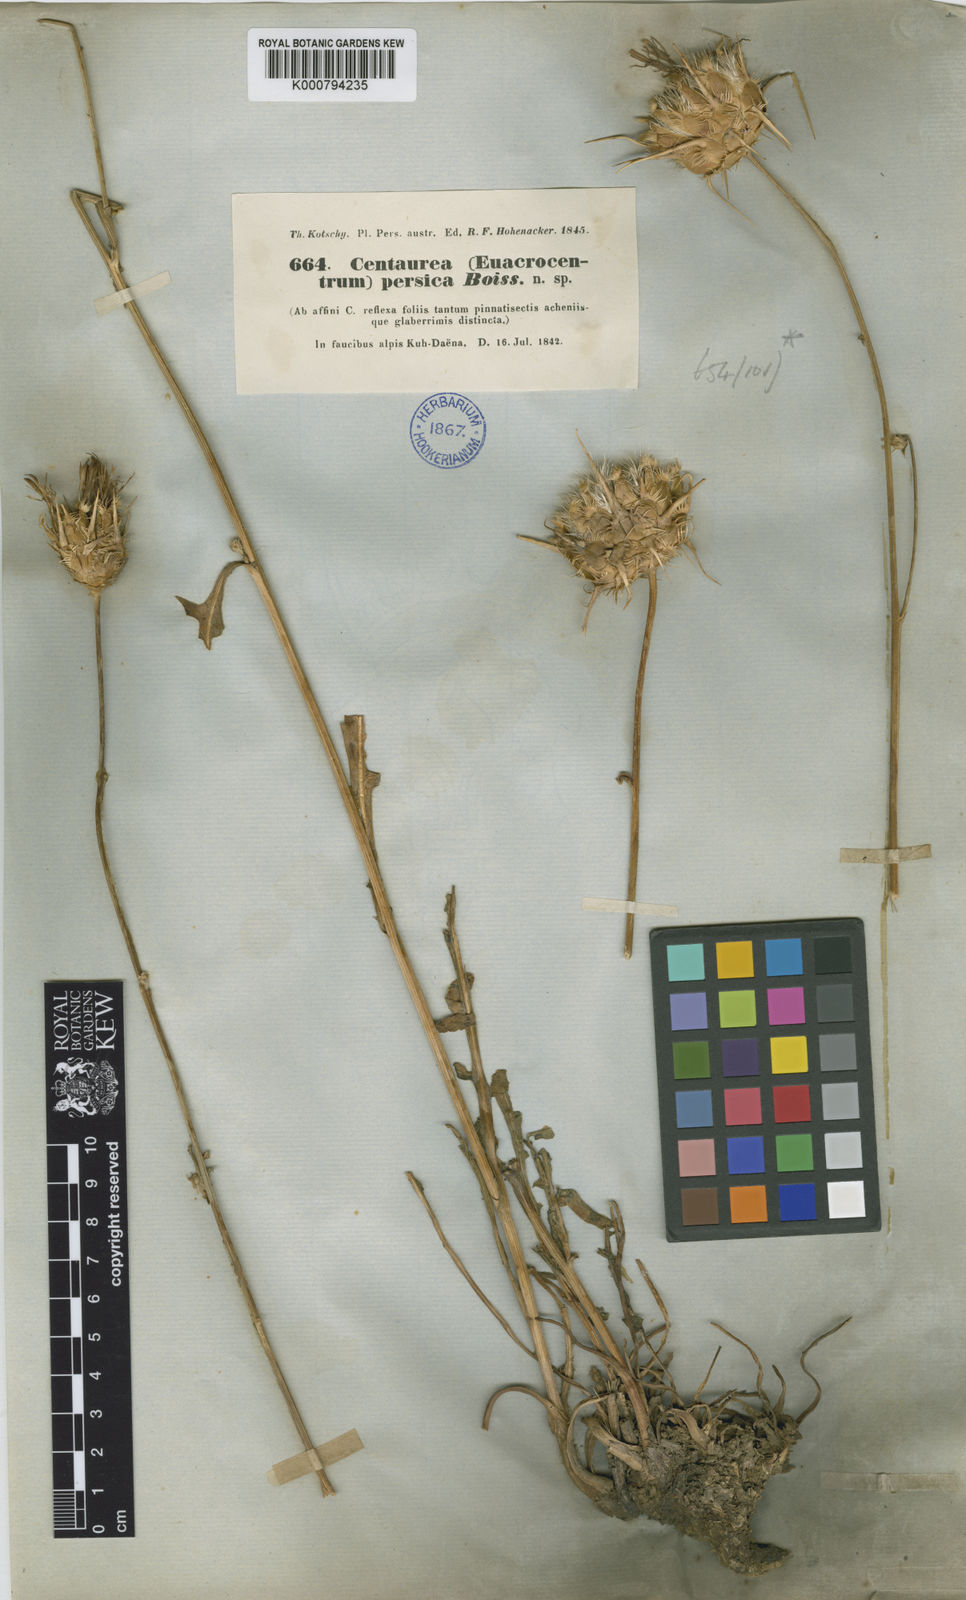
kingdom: Plantae
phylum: Tracheophyta
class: Magnoliopsida
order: Asterales
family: Asteraceae
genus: Centaurea
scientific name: Centaurea persica
